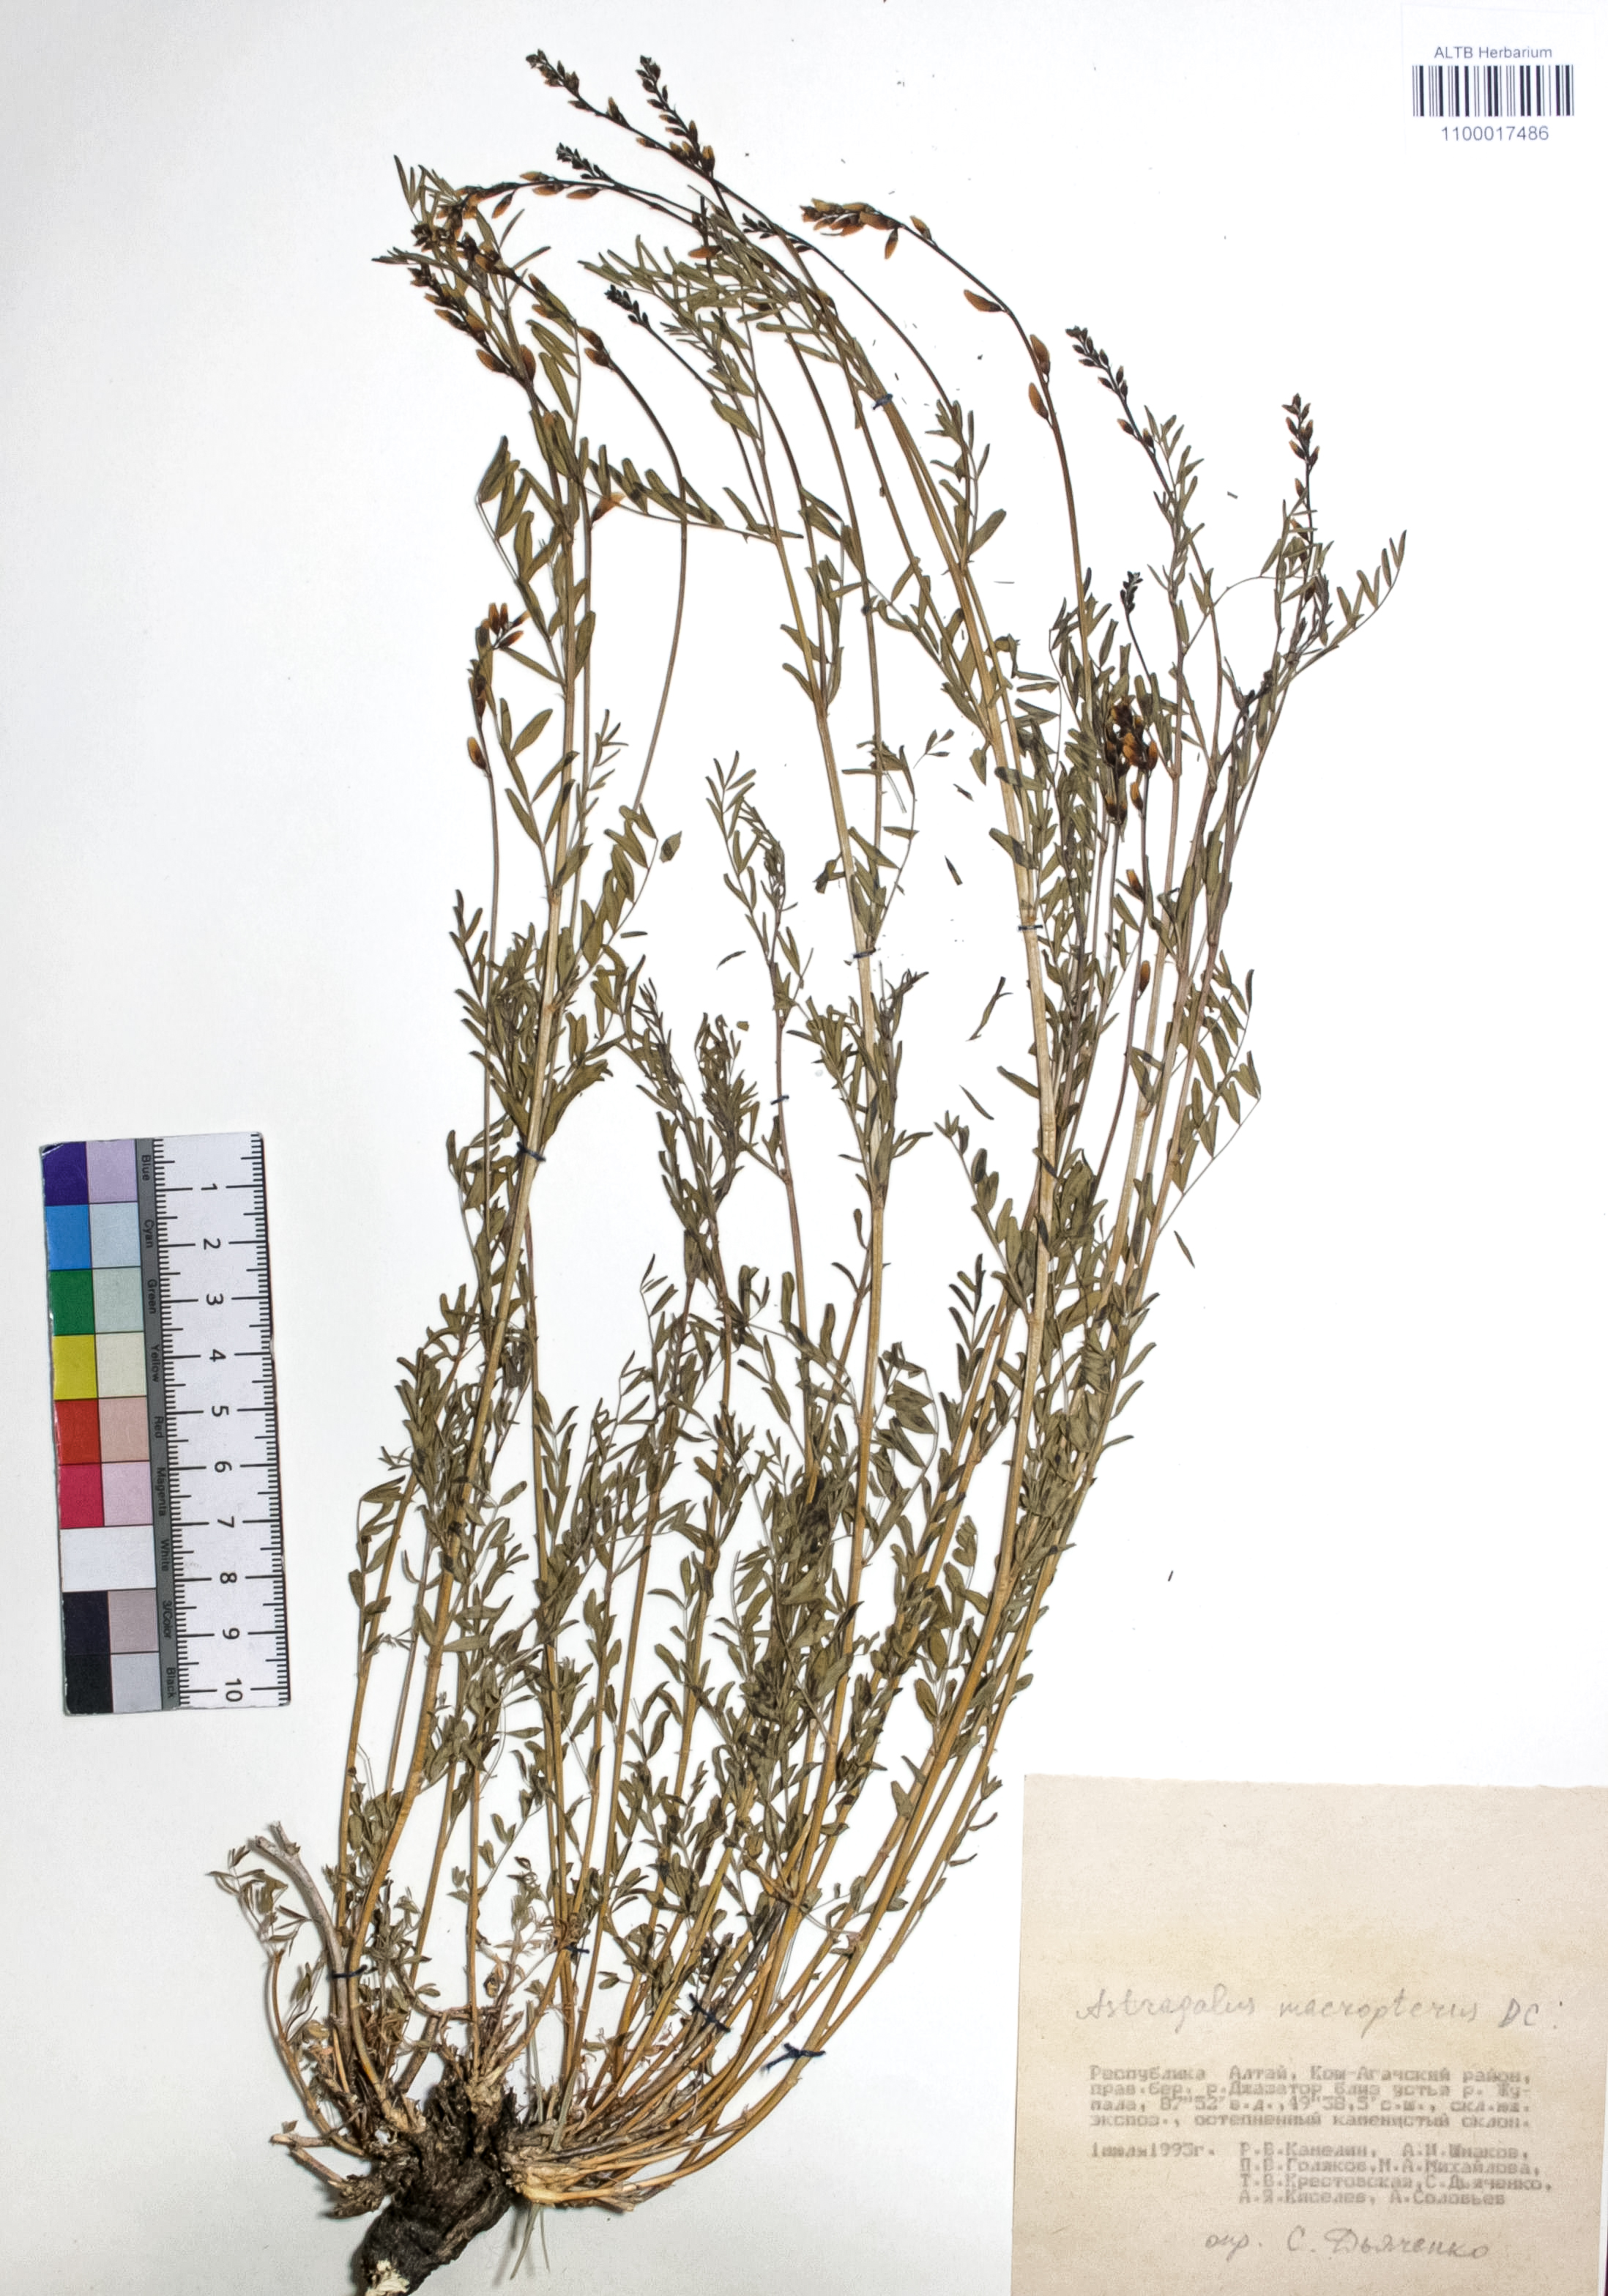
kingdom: Plantae
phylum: Tracheophyta
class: Magnoliopsida
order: Fabales
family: Fabaceae
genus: Astragalus
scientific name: Astragalus leptostachys
